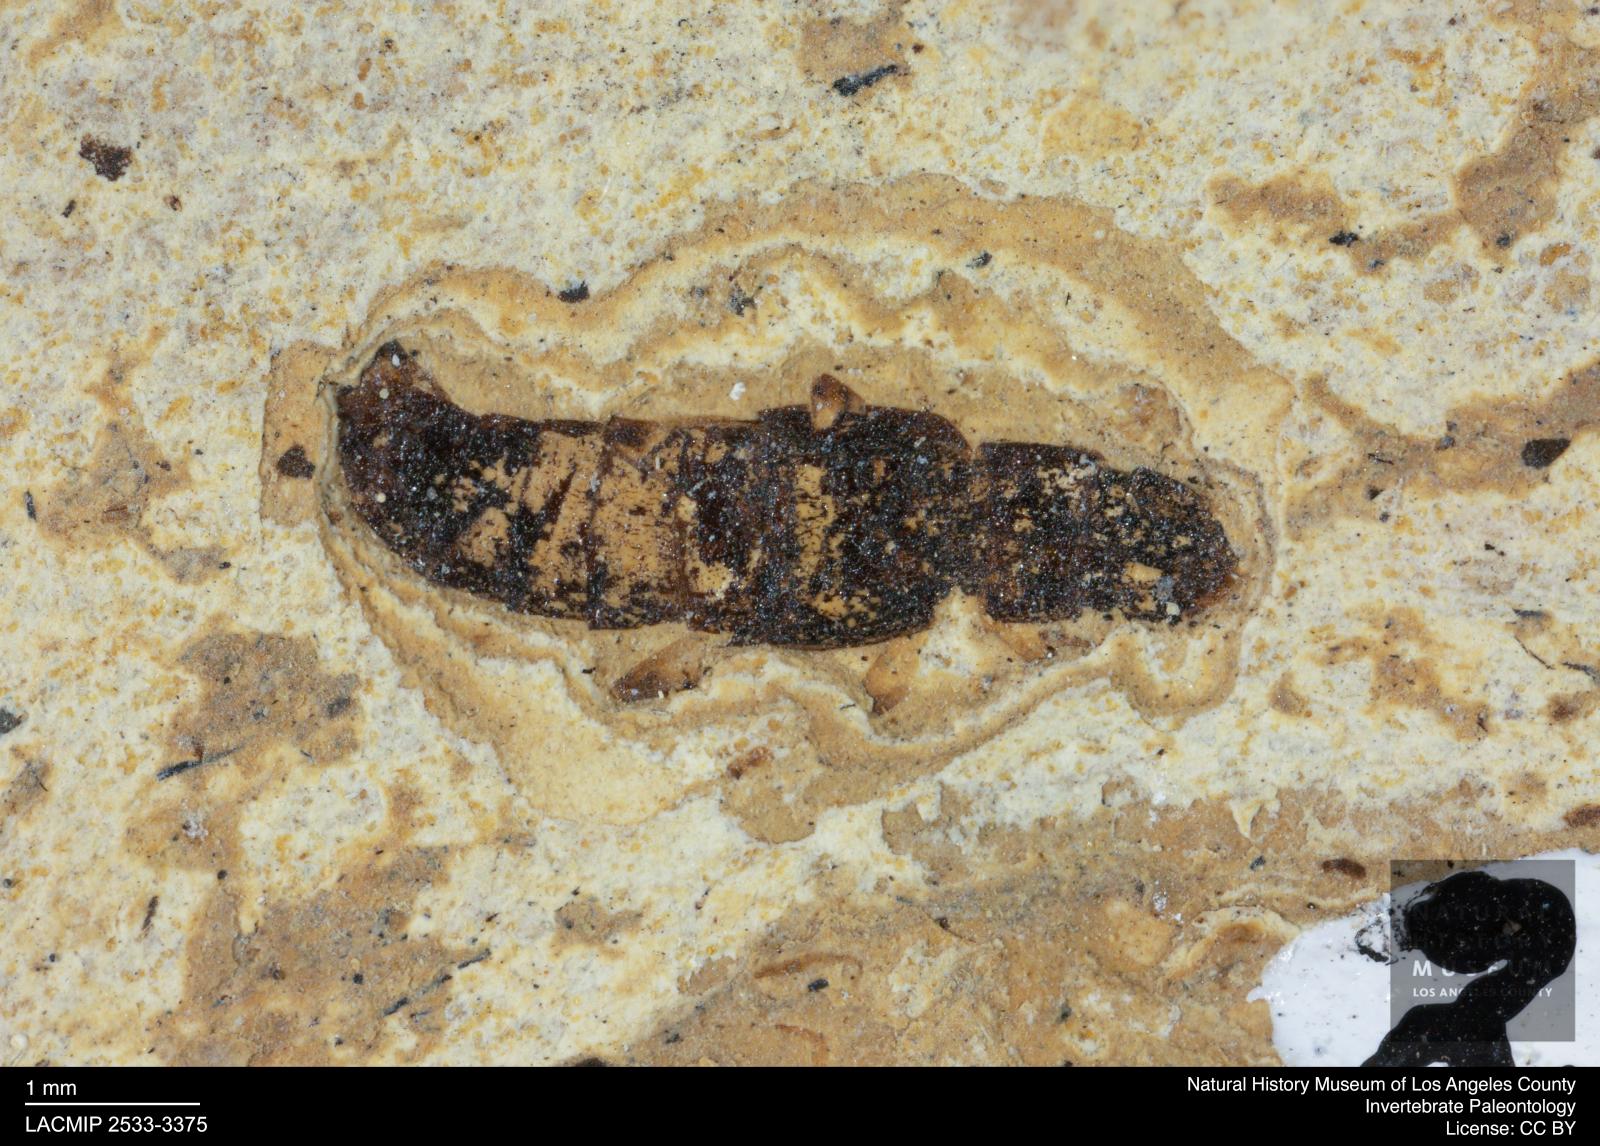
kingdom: Animalia
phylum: Arthropoda
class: Insecta
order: Coleoptera
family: Staphylinidae
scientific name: Staphylinidae
